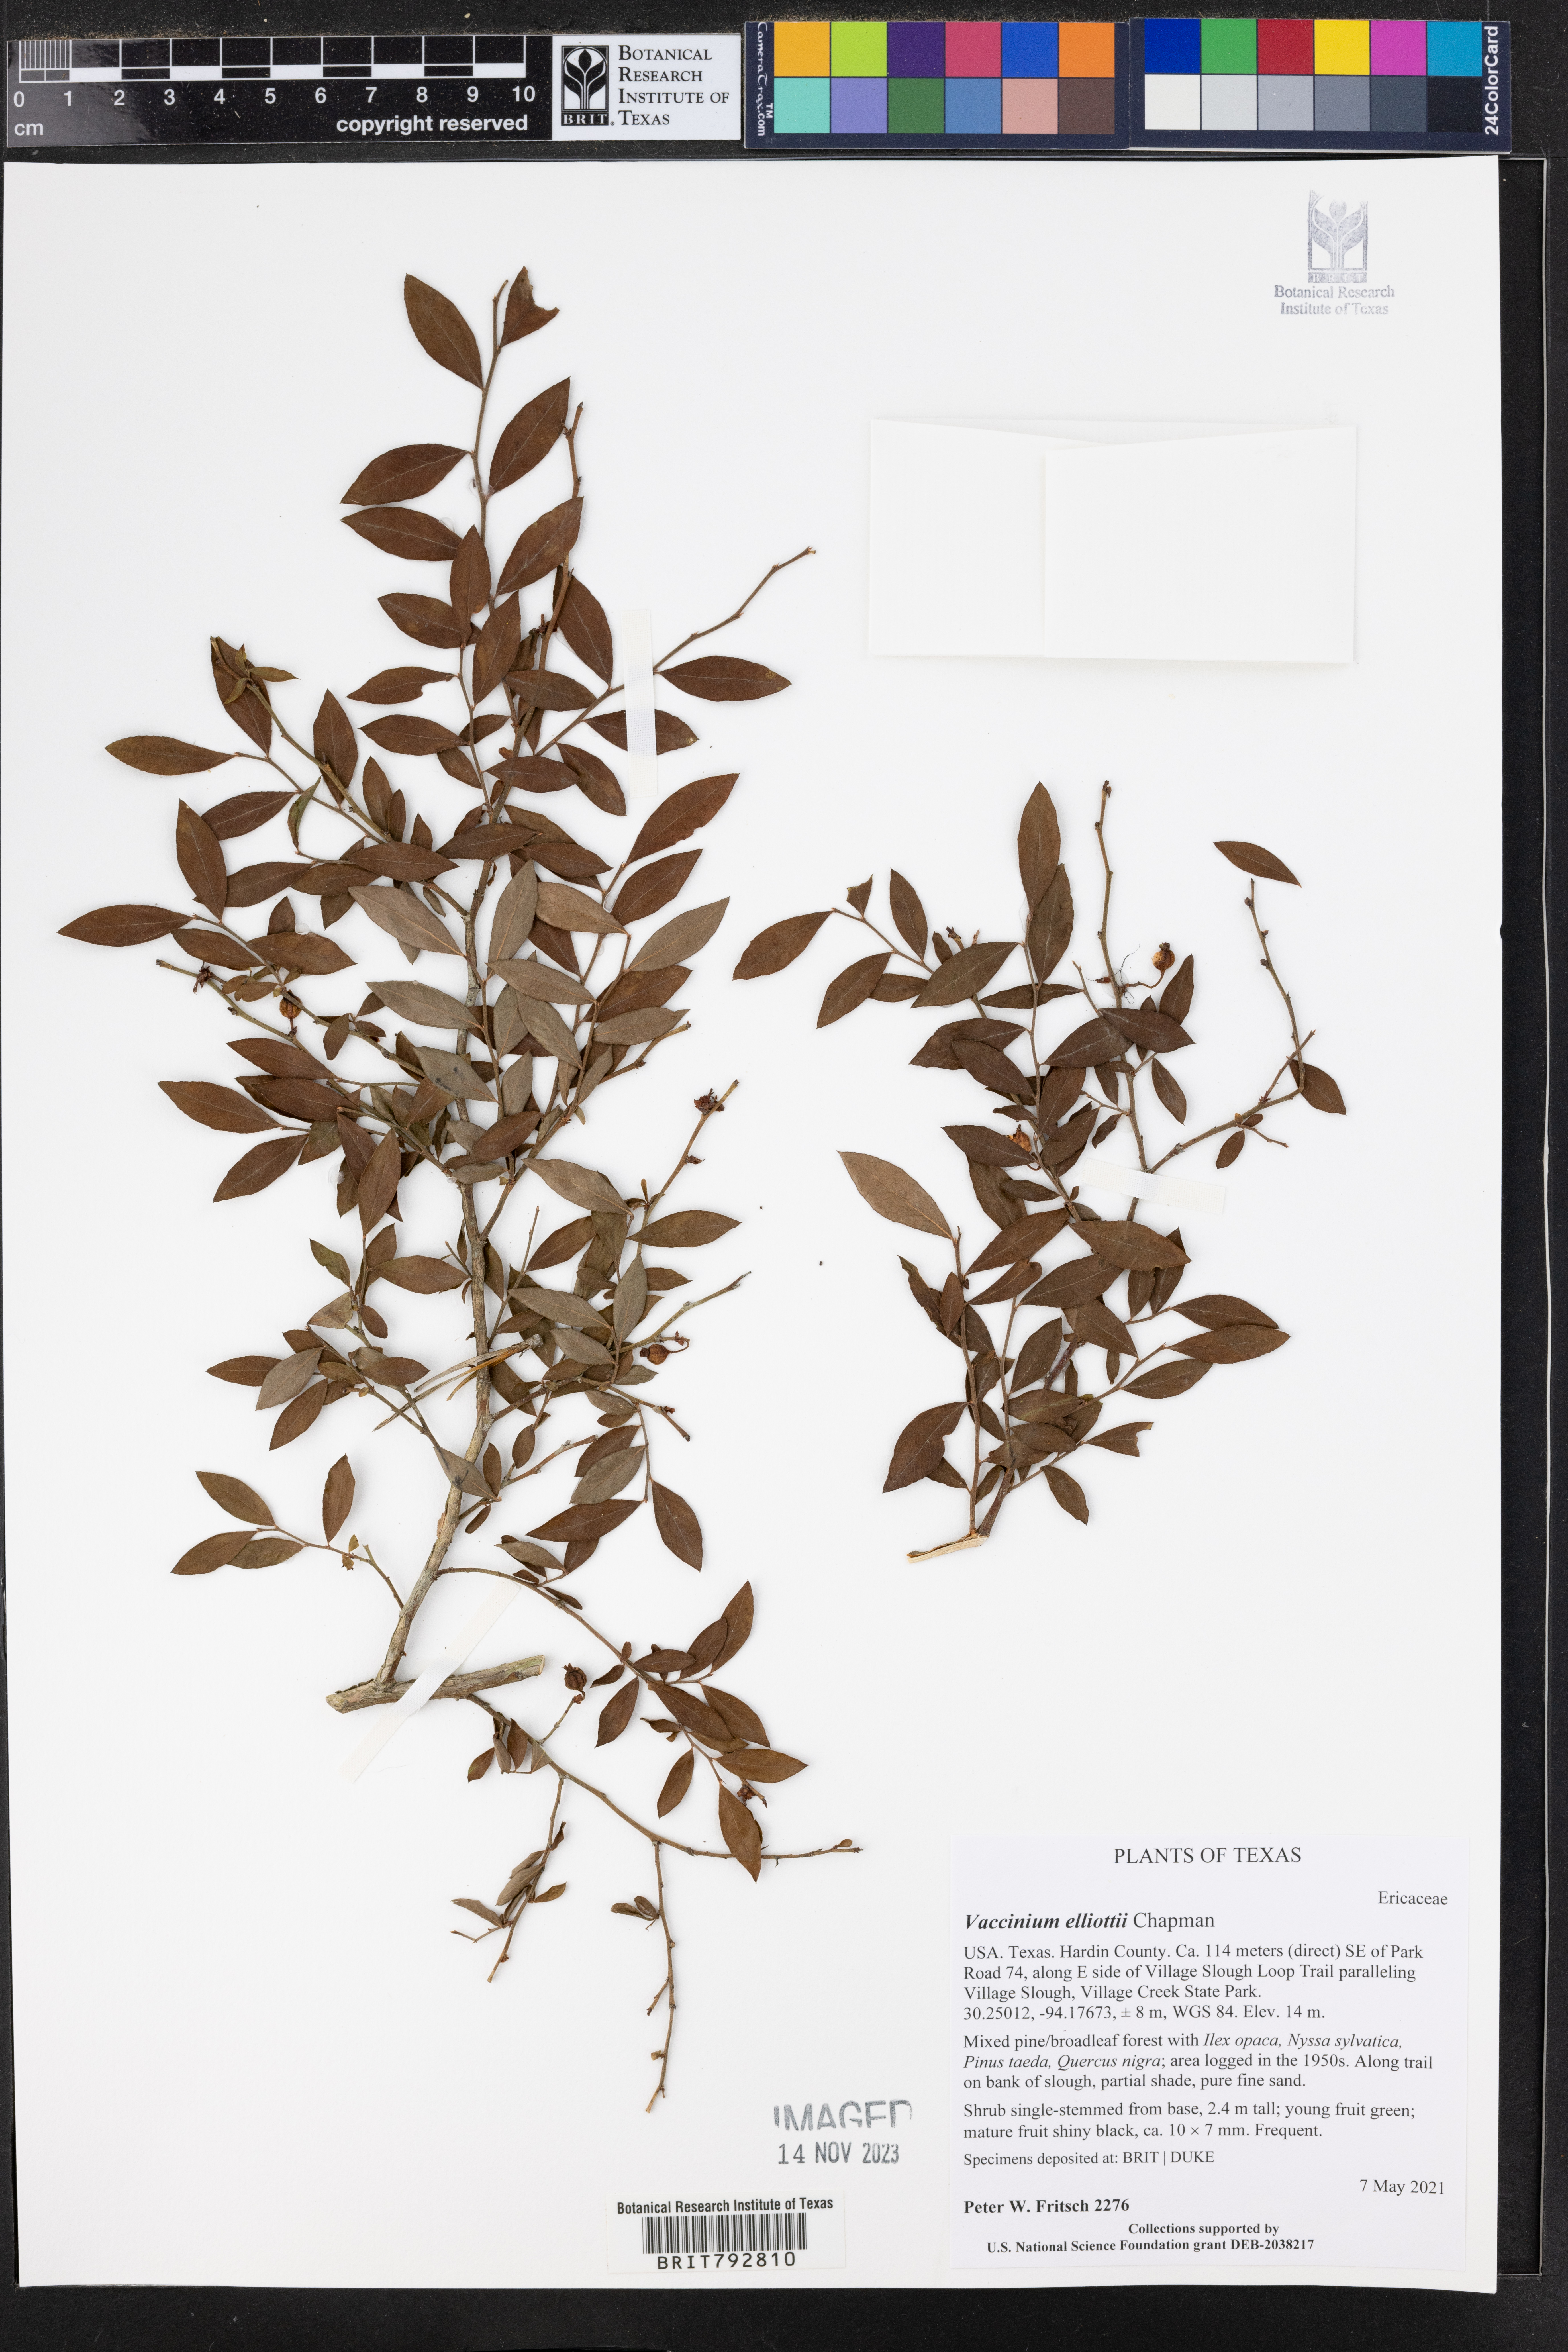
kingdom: Plantae
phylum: Tracheophyta
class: Magnoliopsida
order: Ericales
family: Ericaceae
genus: Vaccinium
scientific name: Vaccinium corymbosum
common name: Blueberry
